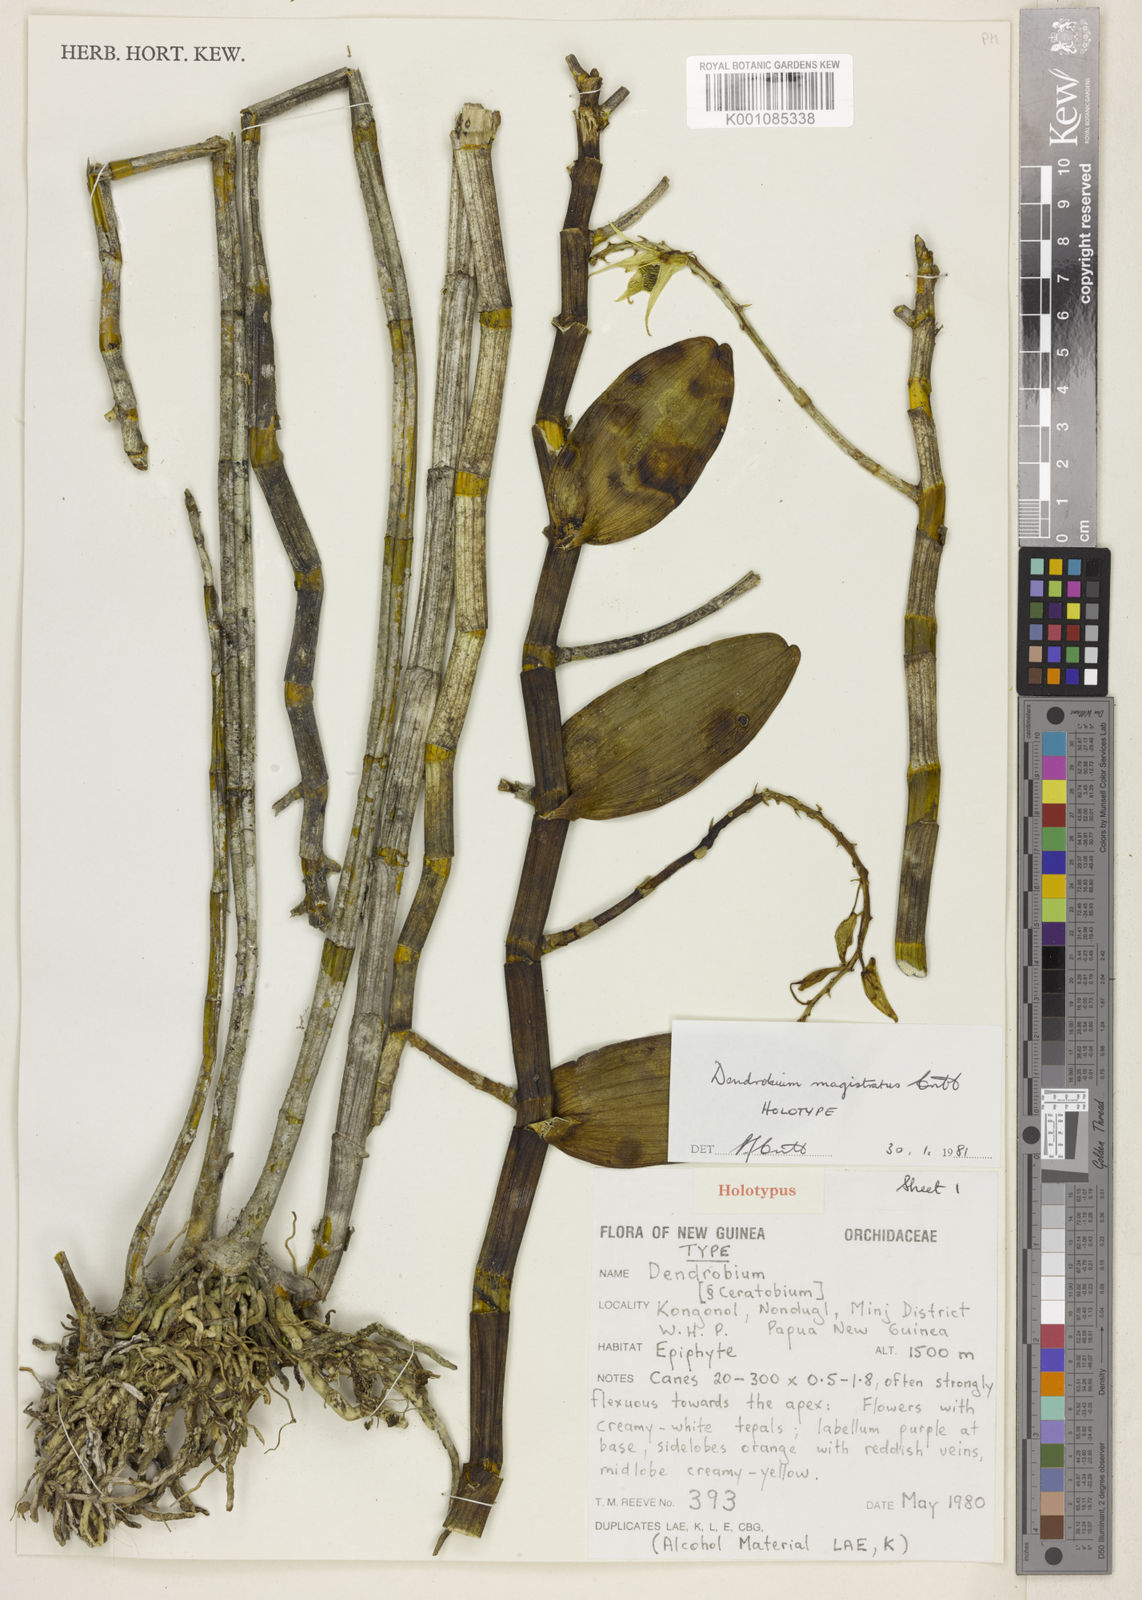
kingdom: Plantae
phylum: Tracheophyta
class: Liliopsida
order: Asparagales
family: Orchidaceae
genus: Dendrobium
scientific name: Dendrobium magistratus
